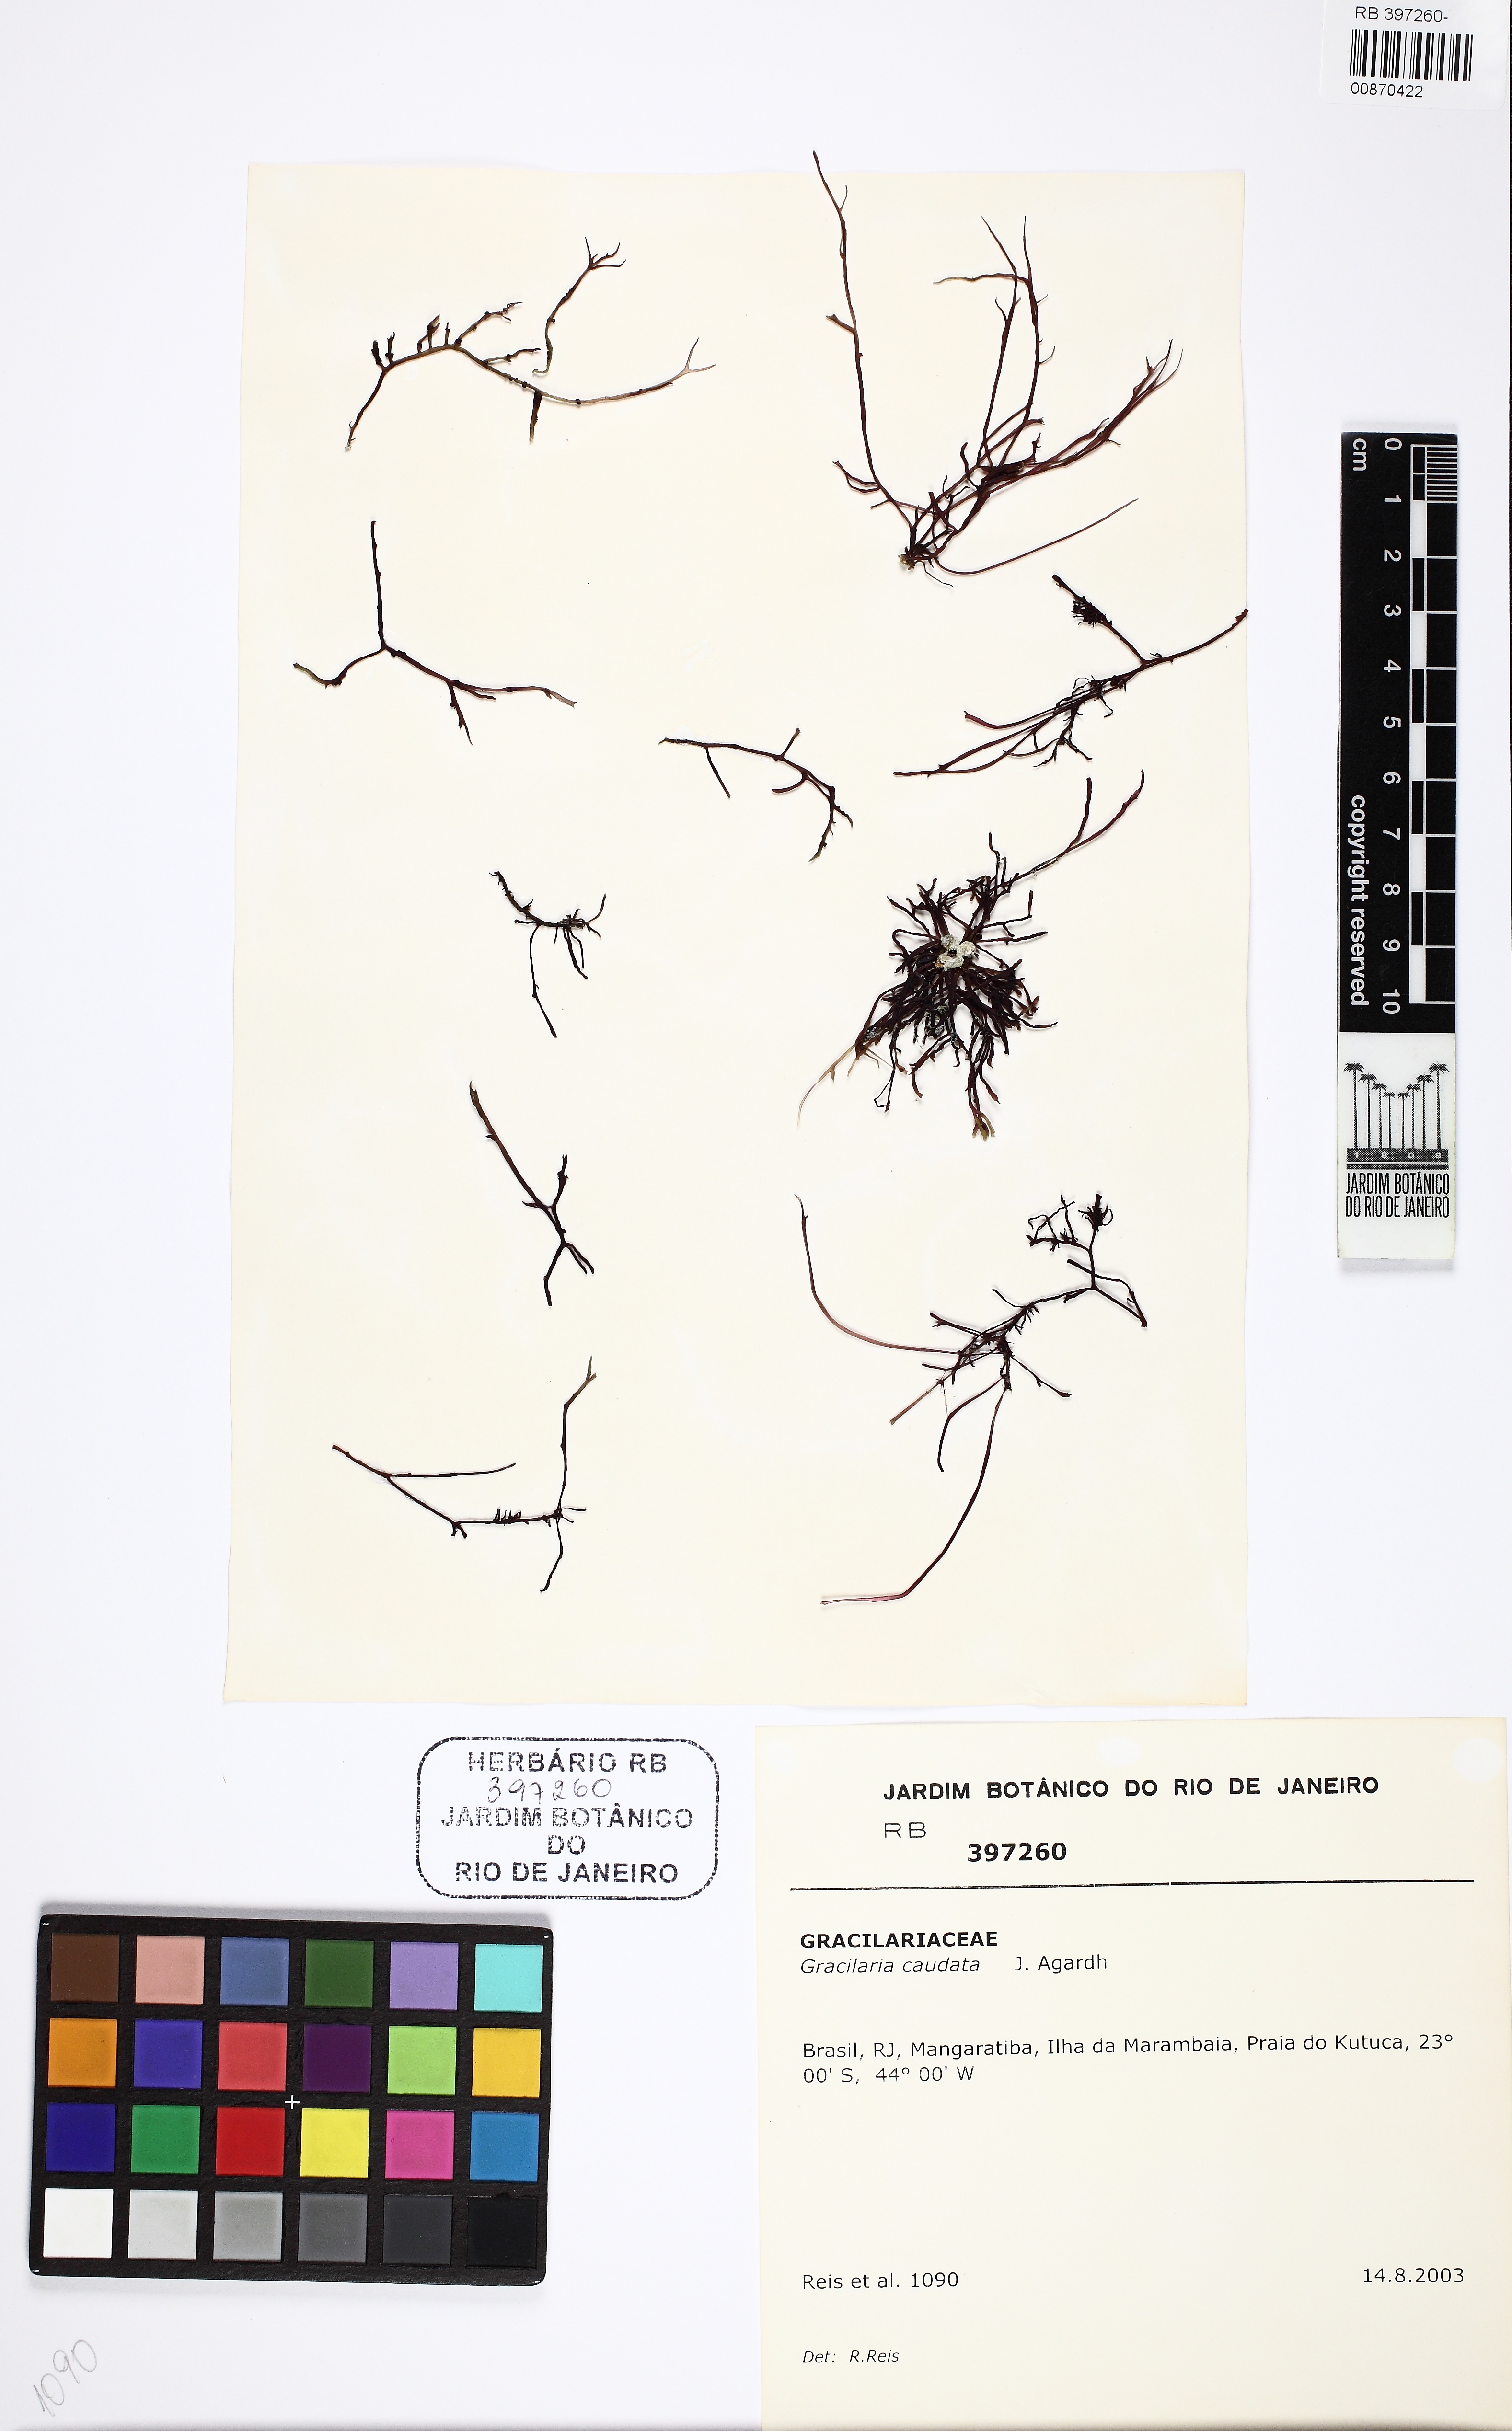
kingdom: Plantae
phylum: Rhodophyta
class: Florideophyceae
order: Gracilariales
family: Gracilariaceae
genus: Crassiphycus
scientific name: Crassiphycus caudatus
